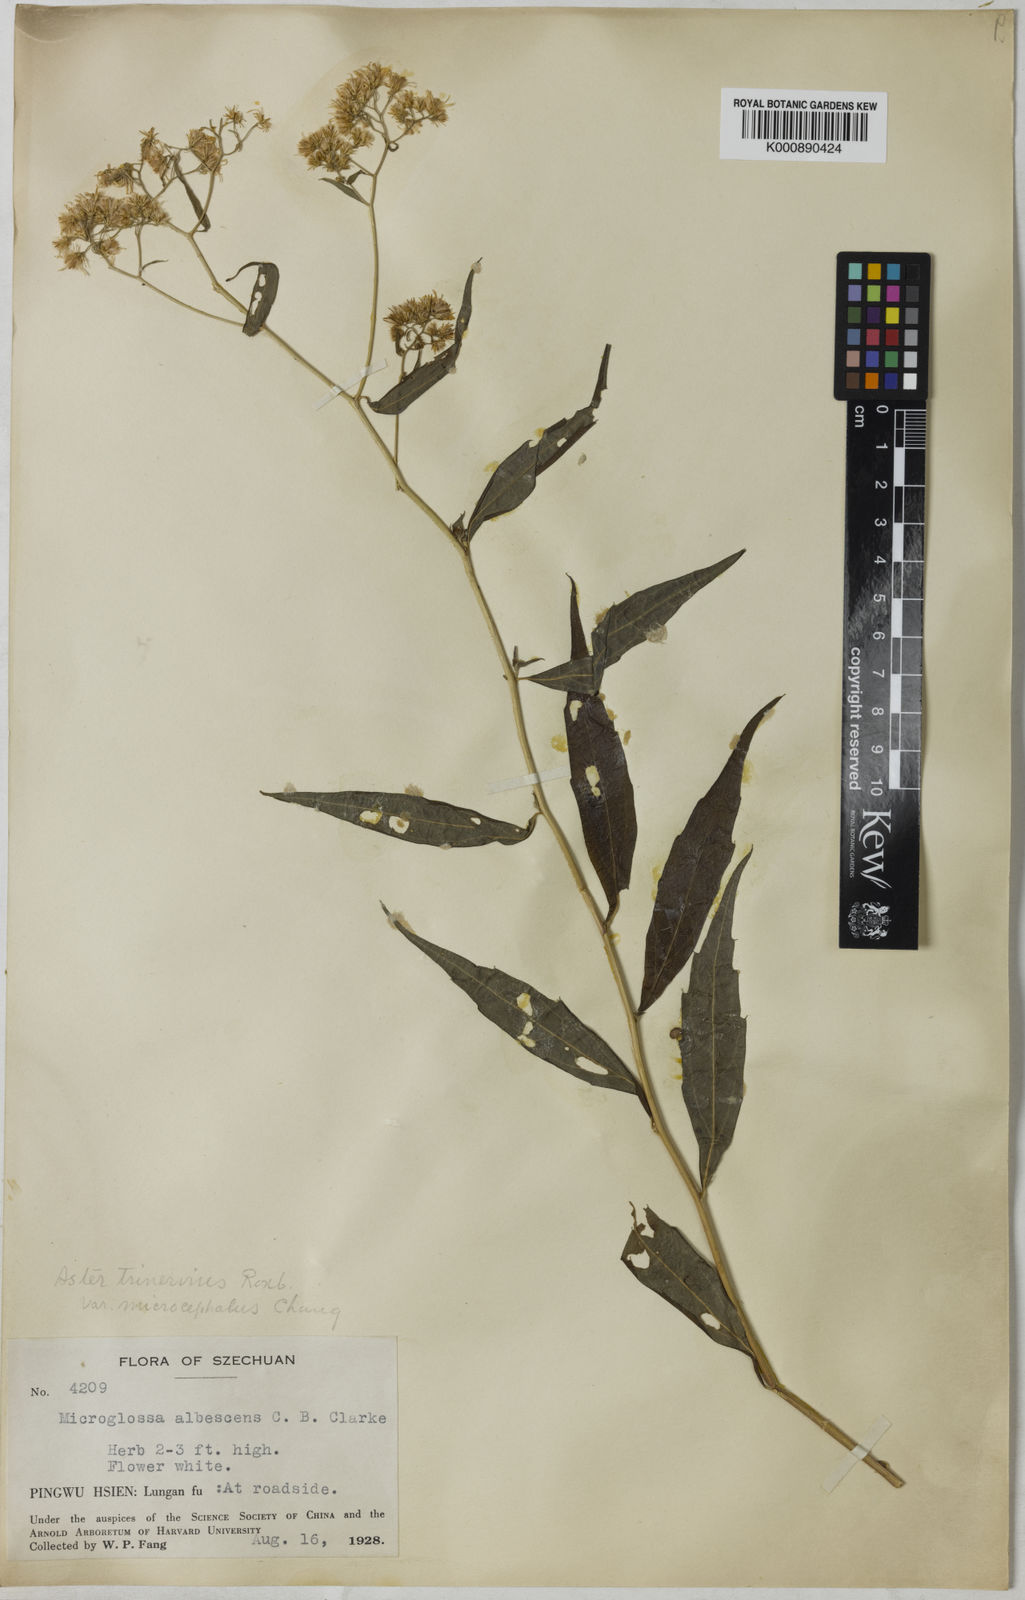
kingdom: Plantae
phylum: Tracheophyta
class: Magnoliopsida
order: Asterales
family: Asteraceae
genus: Aster
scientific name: Aster
